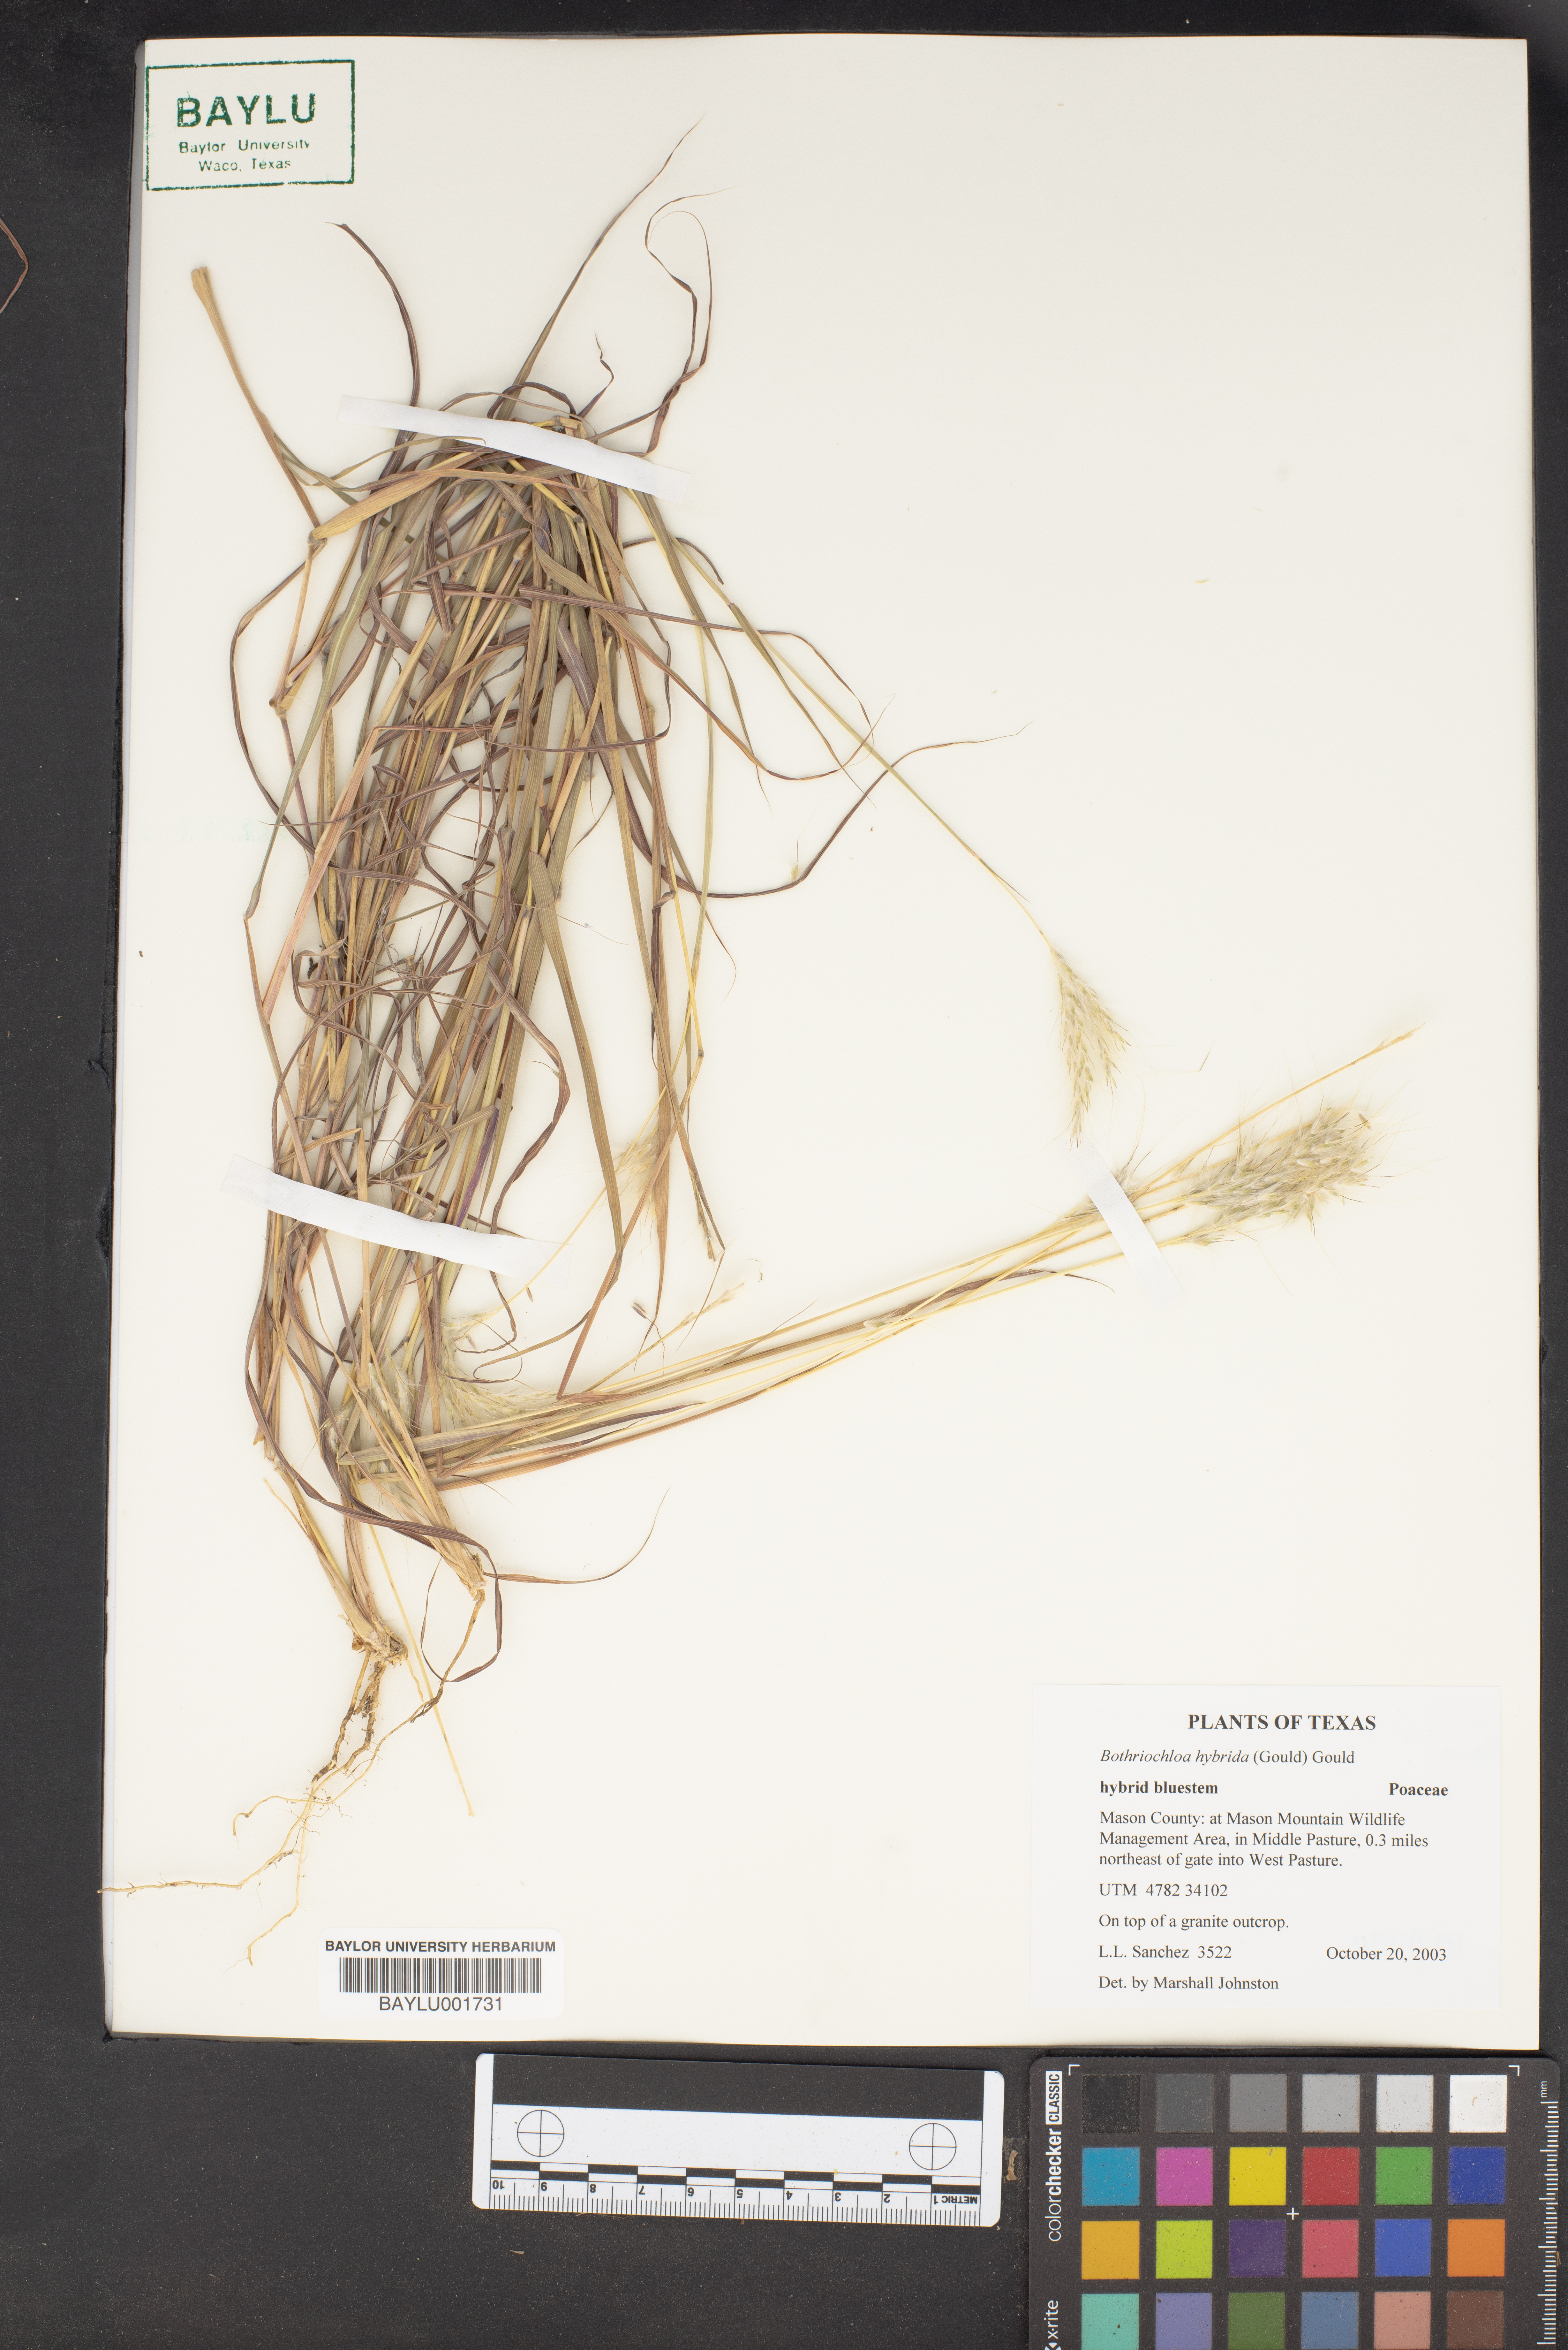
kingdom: Plantae
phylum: Tracheophyta
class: Liliopsida
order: Poales
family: Poaceae
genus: Bothriochloa
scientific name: Bothriochloa hybrida
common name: Hybrid bluestem
